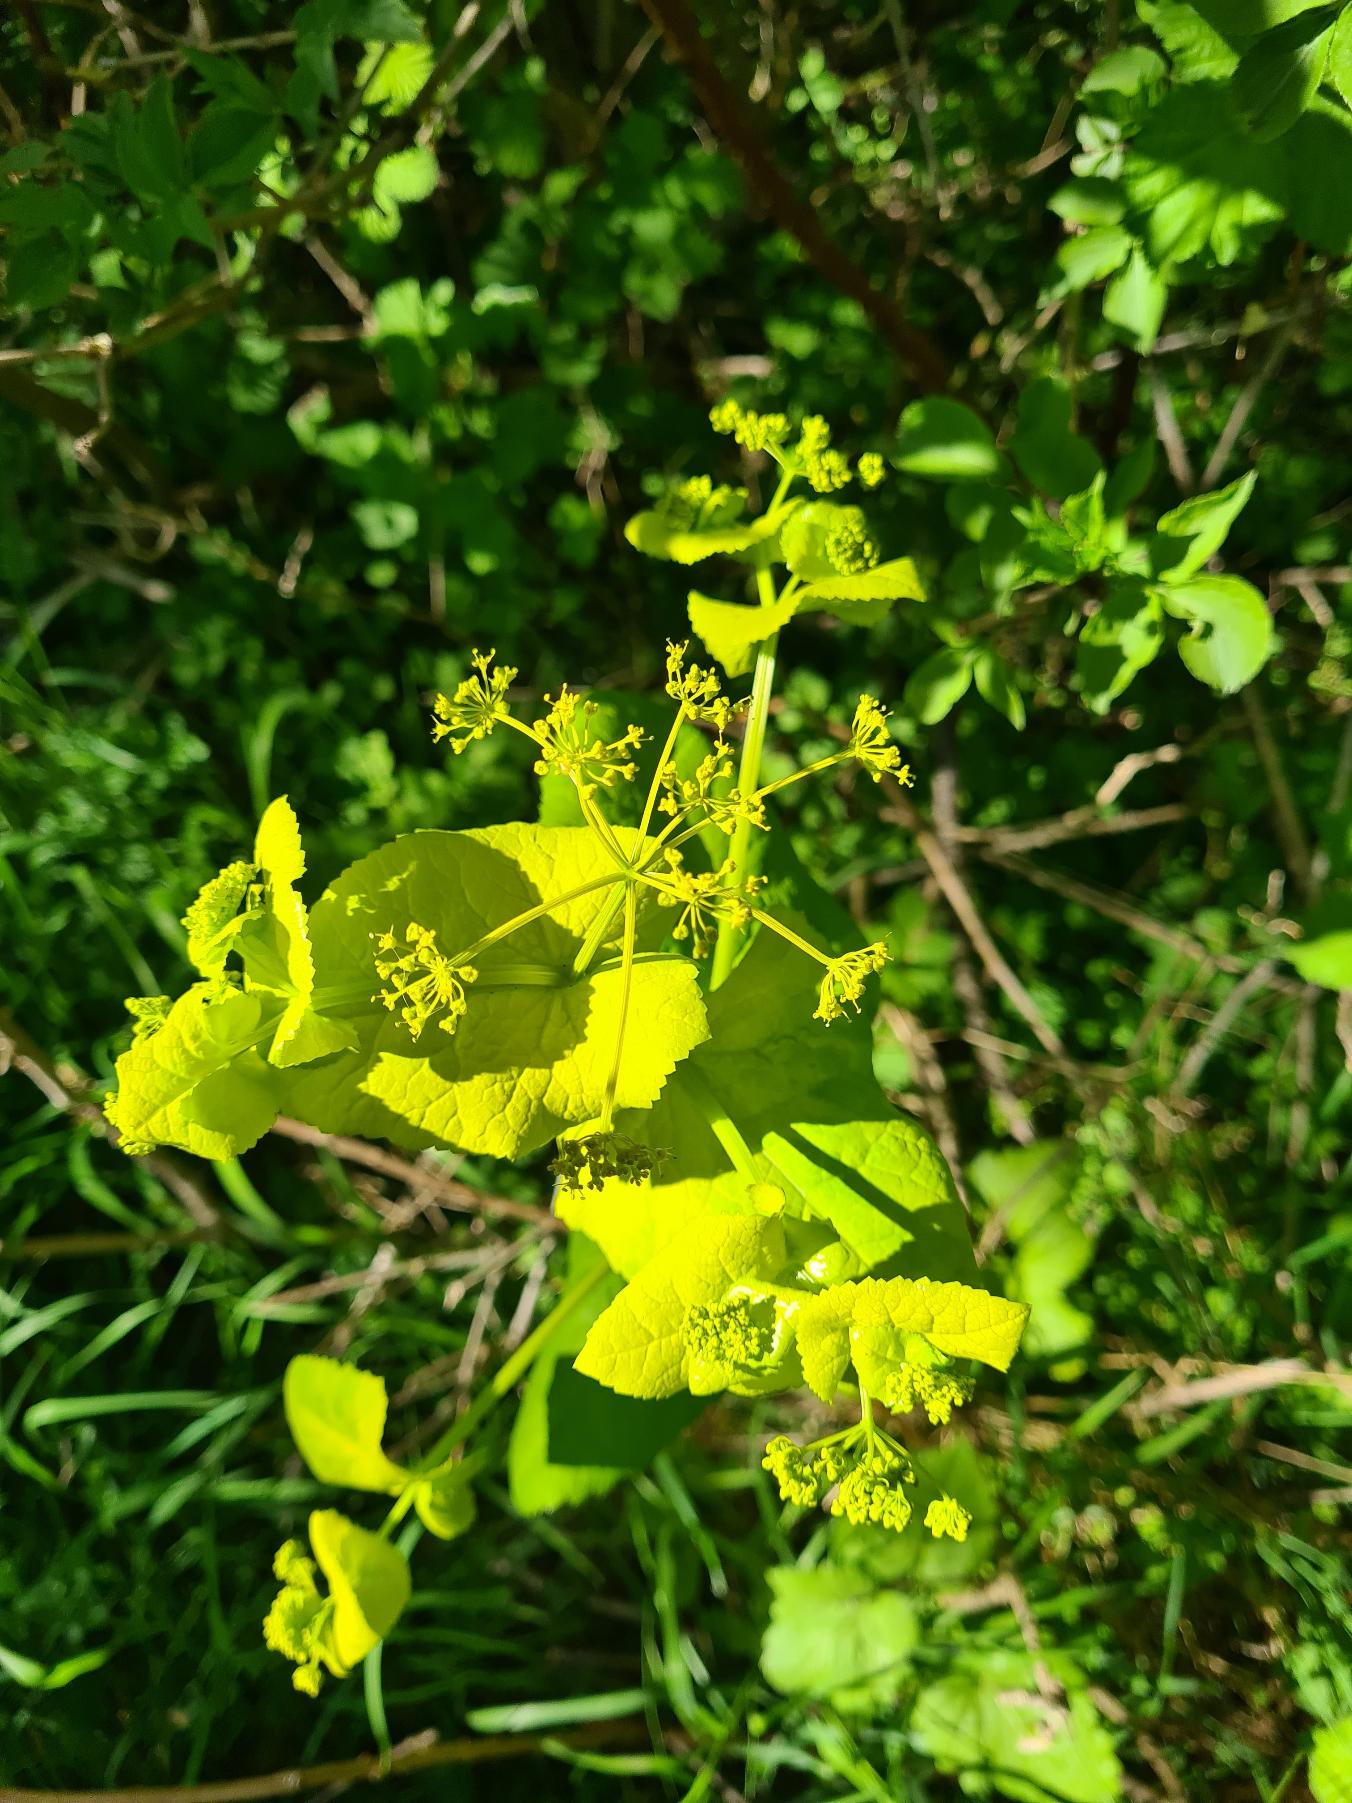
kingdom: Plantae
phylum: Tracheophyta
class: Magnoliopsida
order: Apiales
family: Apiaceae
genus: Smyrnium
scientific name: Smyrnium perfoliatum
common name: Lundgylden
